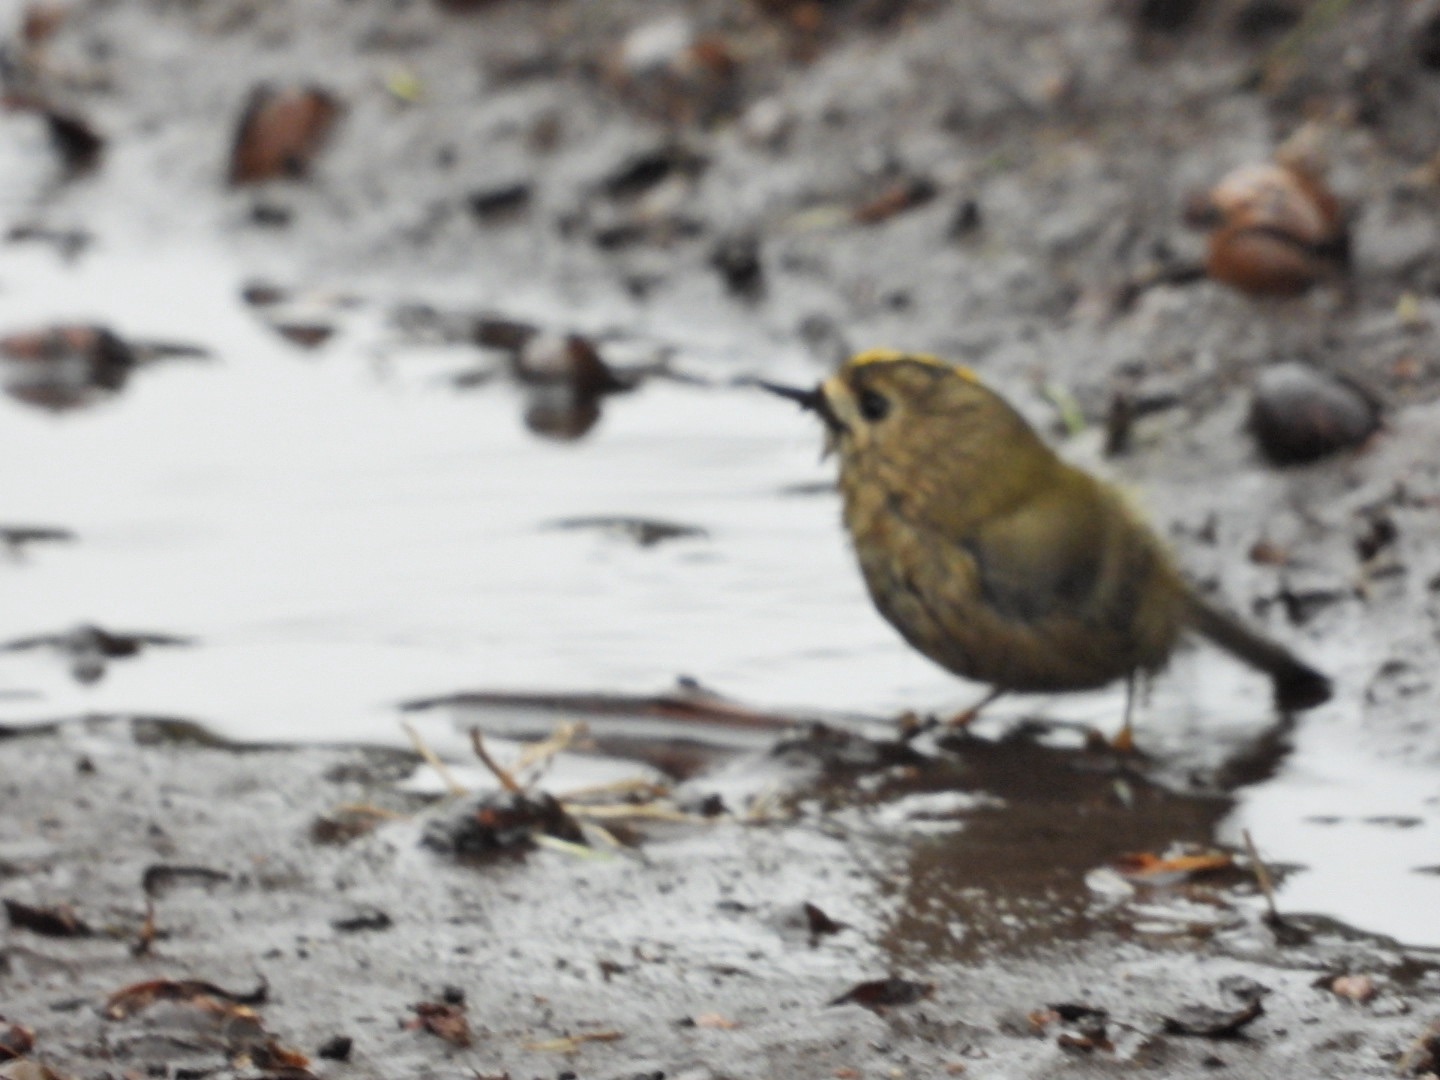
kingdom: Animalia
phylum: Chordata
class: Aves
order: Passeriformes
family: Regulidae
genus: Regulus
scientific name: Regulus regulus
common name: Fuglekonge
